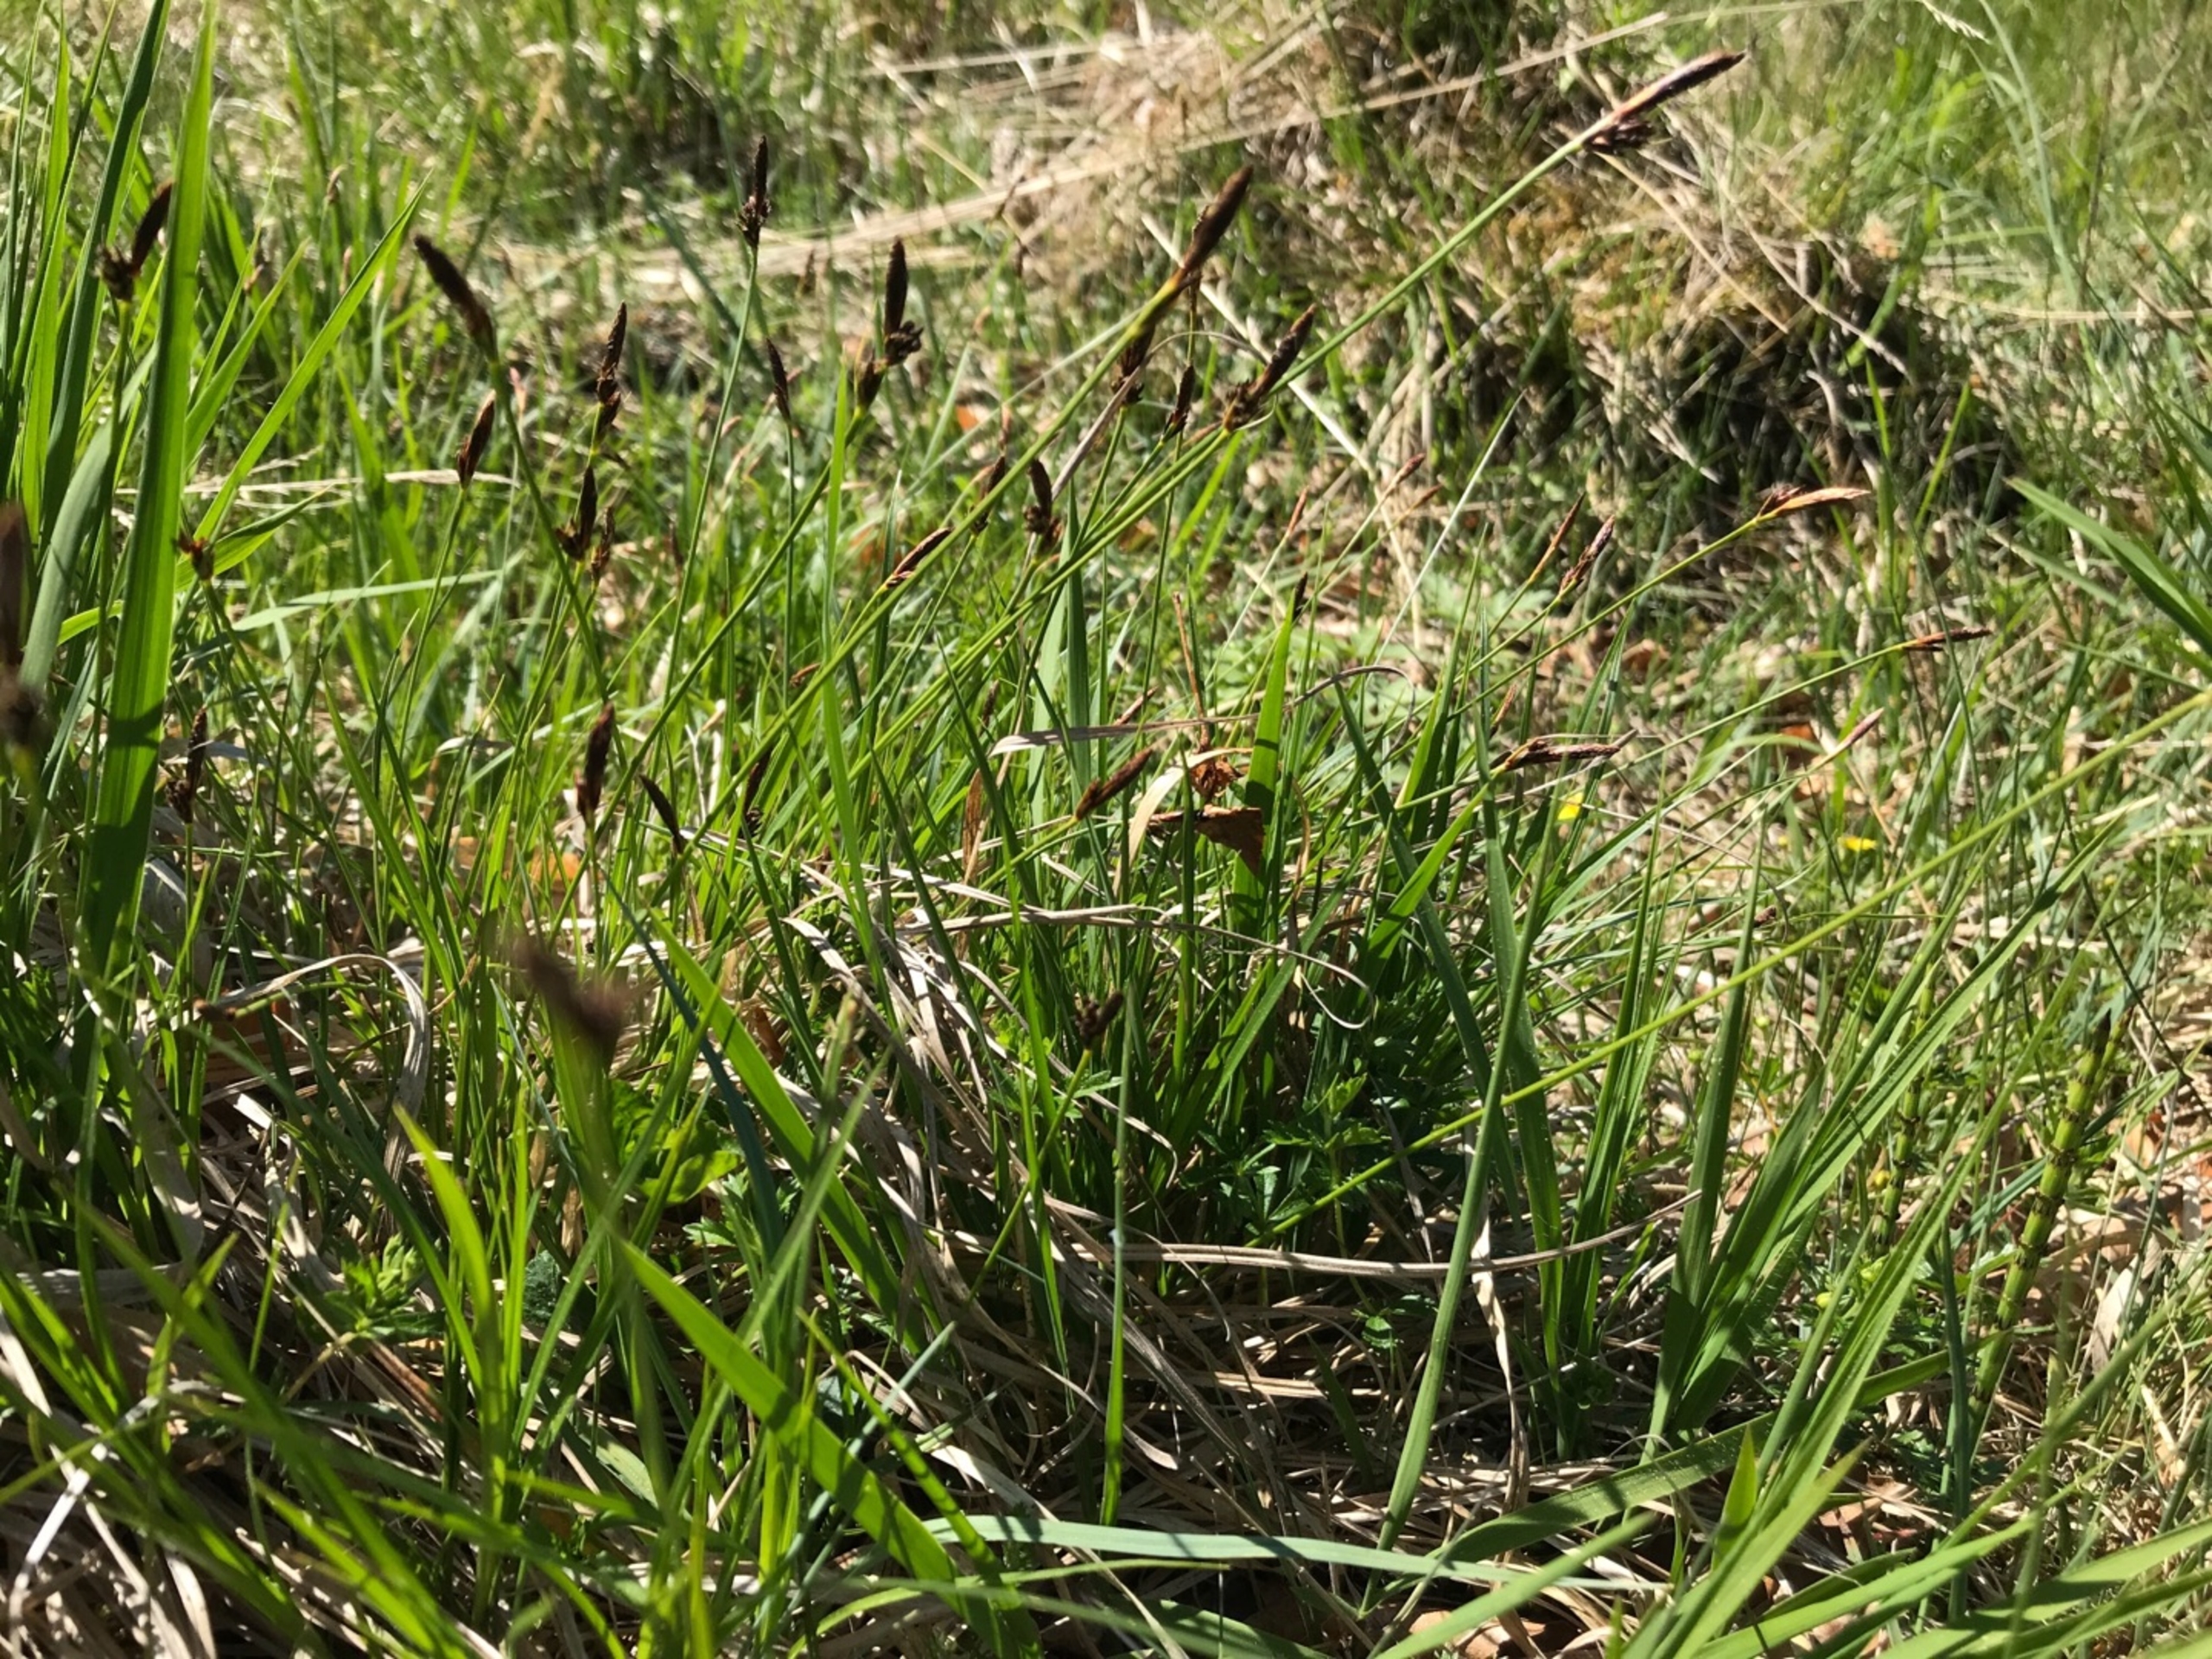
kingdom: Plantae
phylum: Tracheophyta
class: Liliopsida
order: Poales
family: Cyperaceae
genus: Carex
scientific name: Carex montana
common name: Bakke-star
